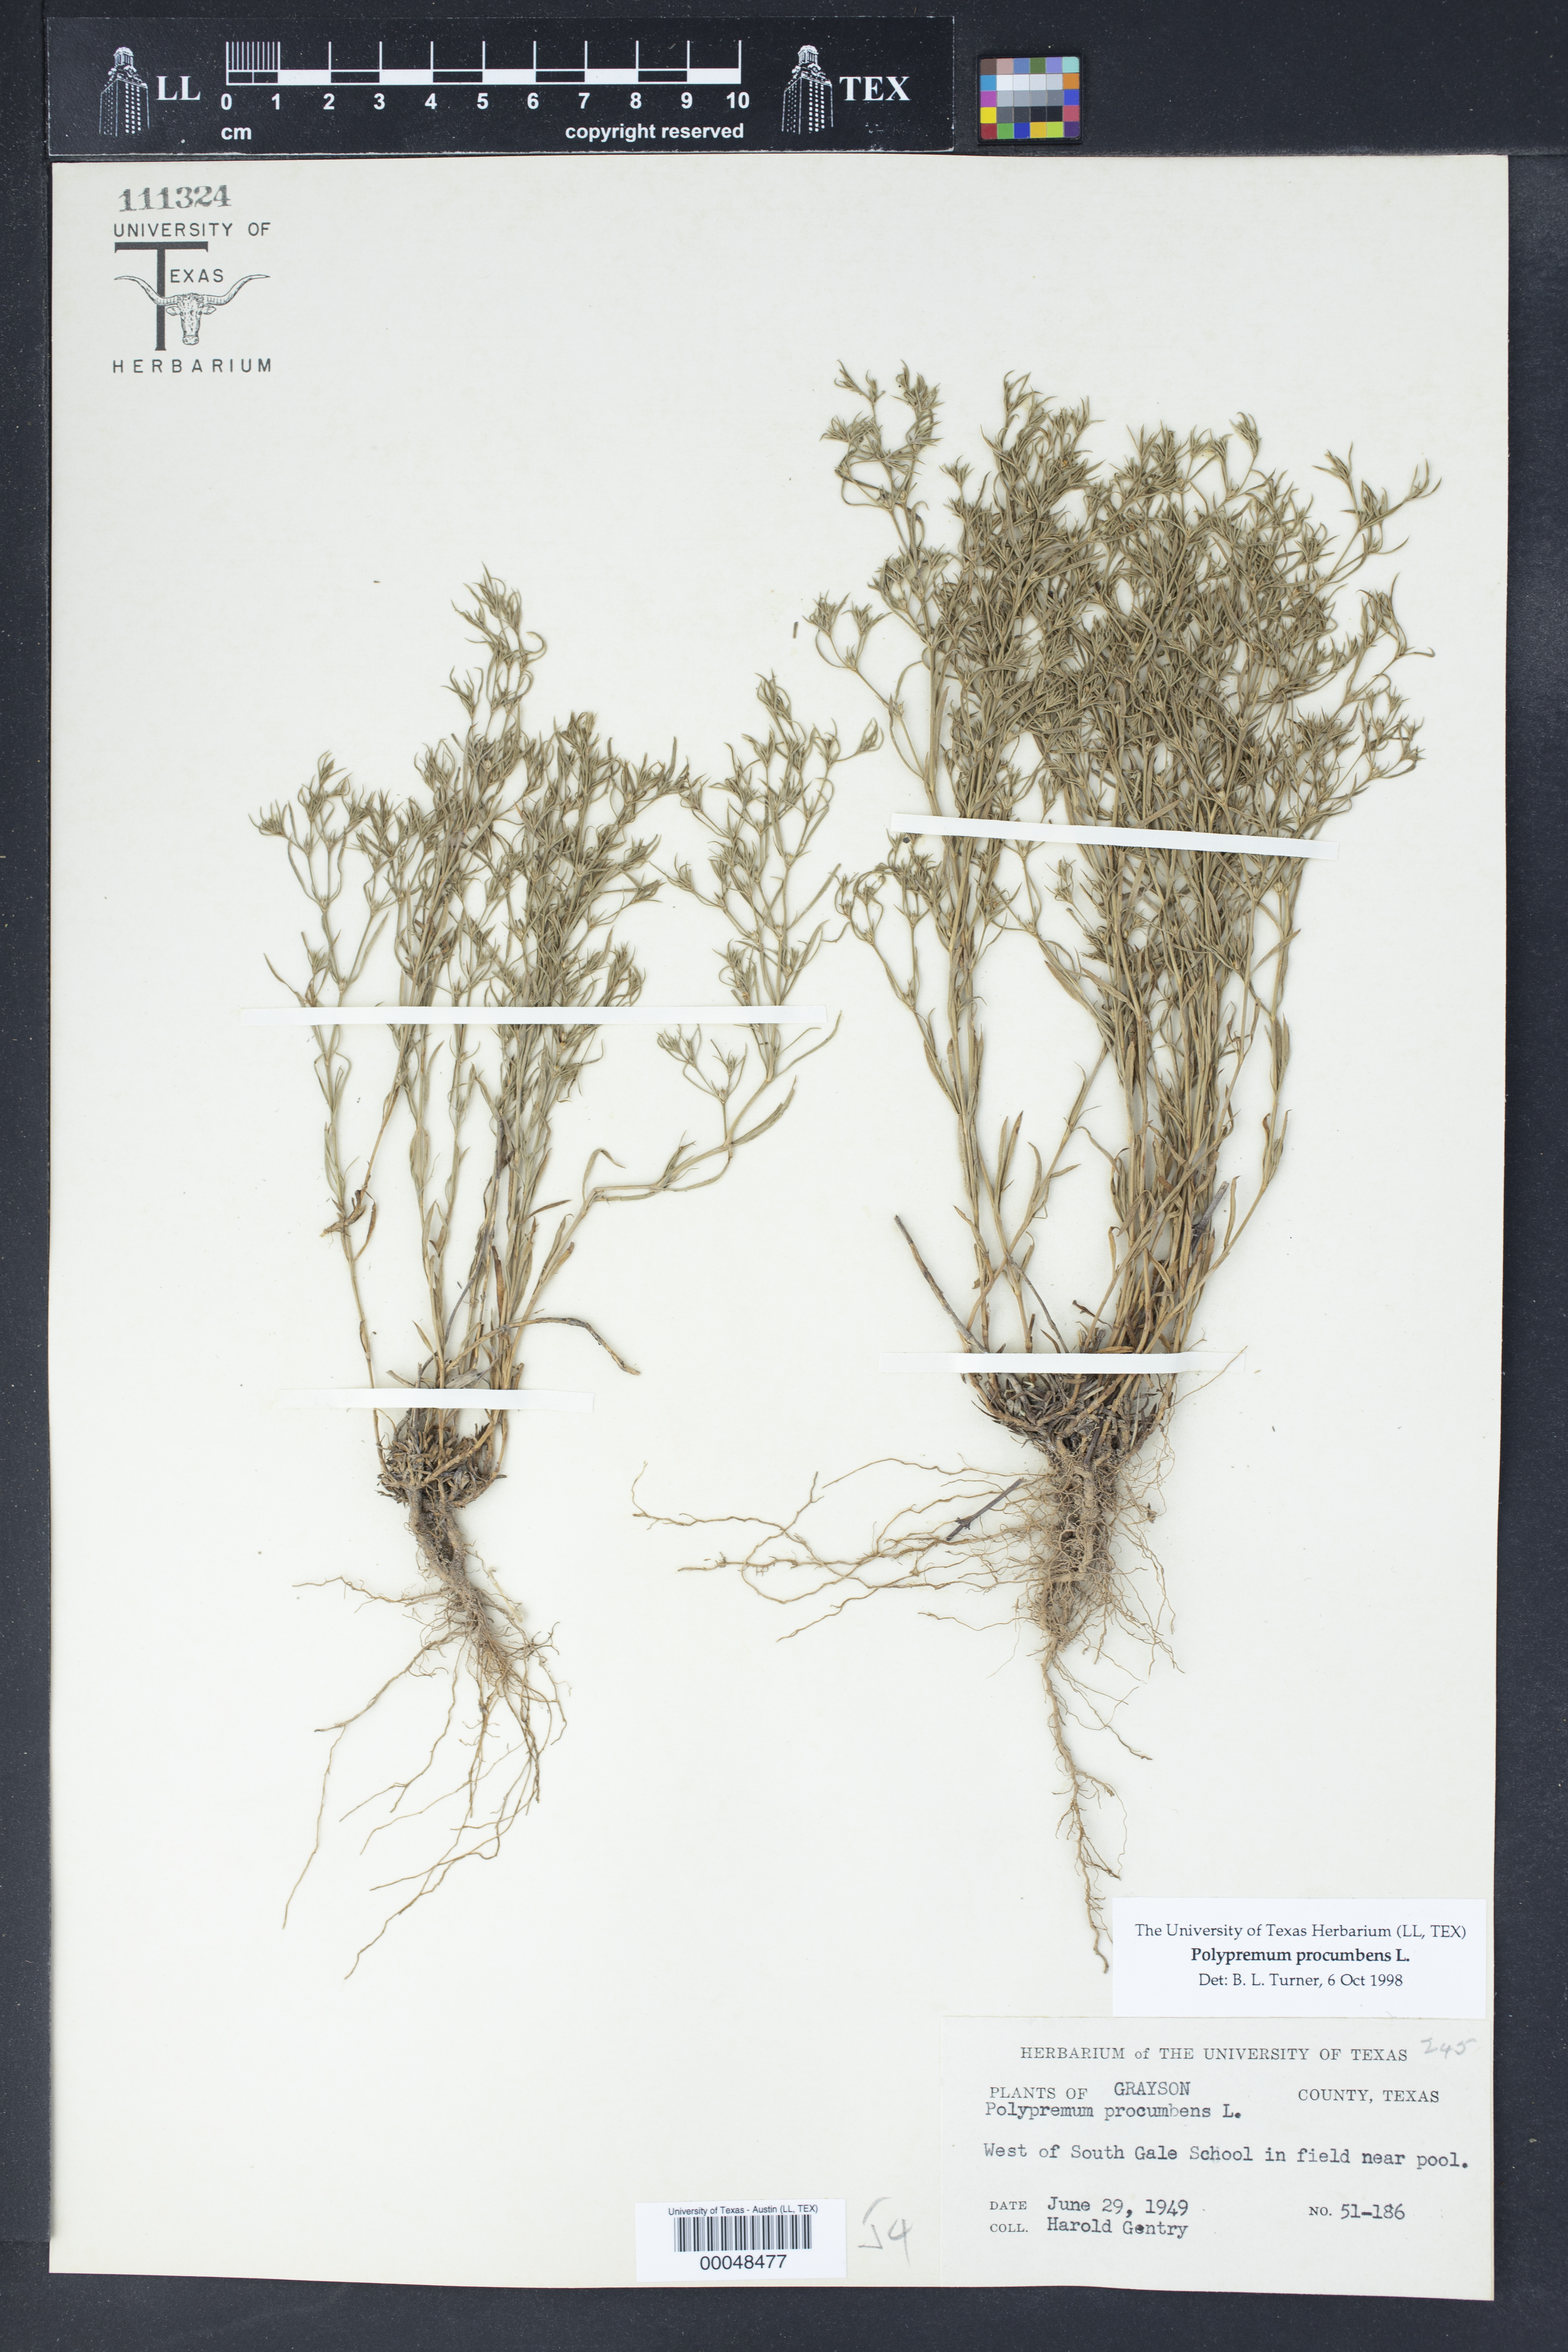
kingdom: Plantae
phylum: Tracheophyta
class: Magnoliopsida
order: Lamiales
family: Tetrachondraceae
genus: Polypremum
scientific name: Polypremum procumbens
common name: Juniper-leaf
